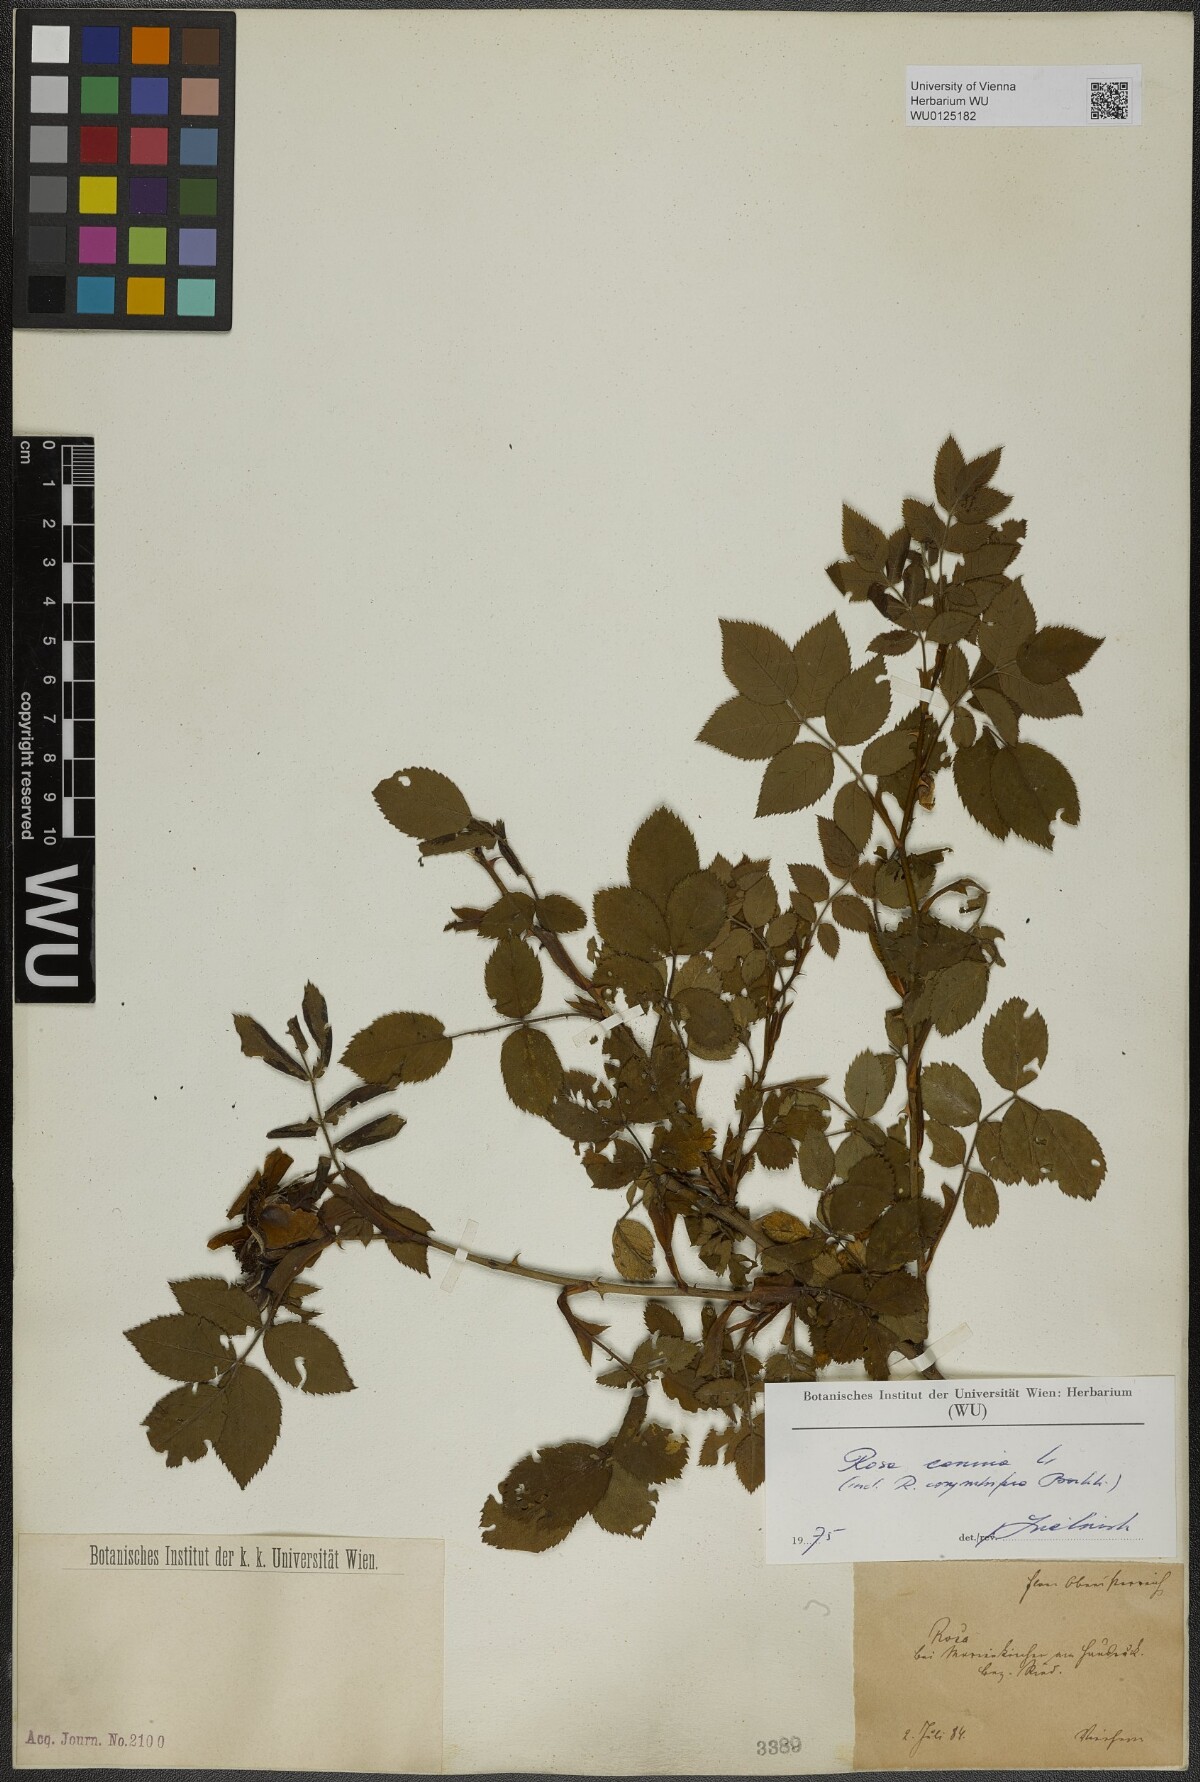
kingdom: Plantae
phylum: Tracheophyta
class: Magnoliopsida
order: Rosales
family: Rosaceae
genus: Rosa
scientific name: Rosa canina
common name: Dog rose
